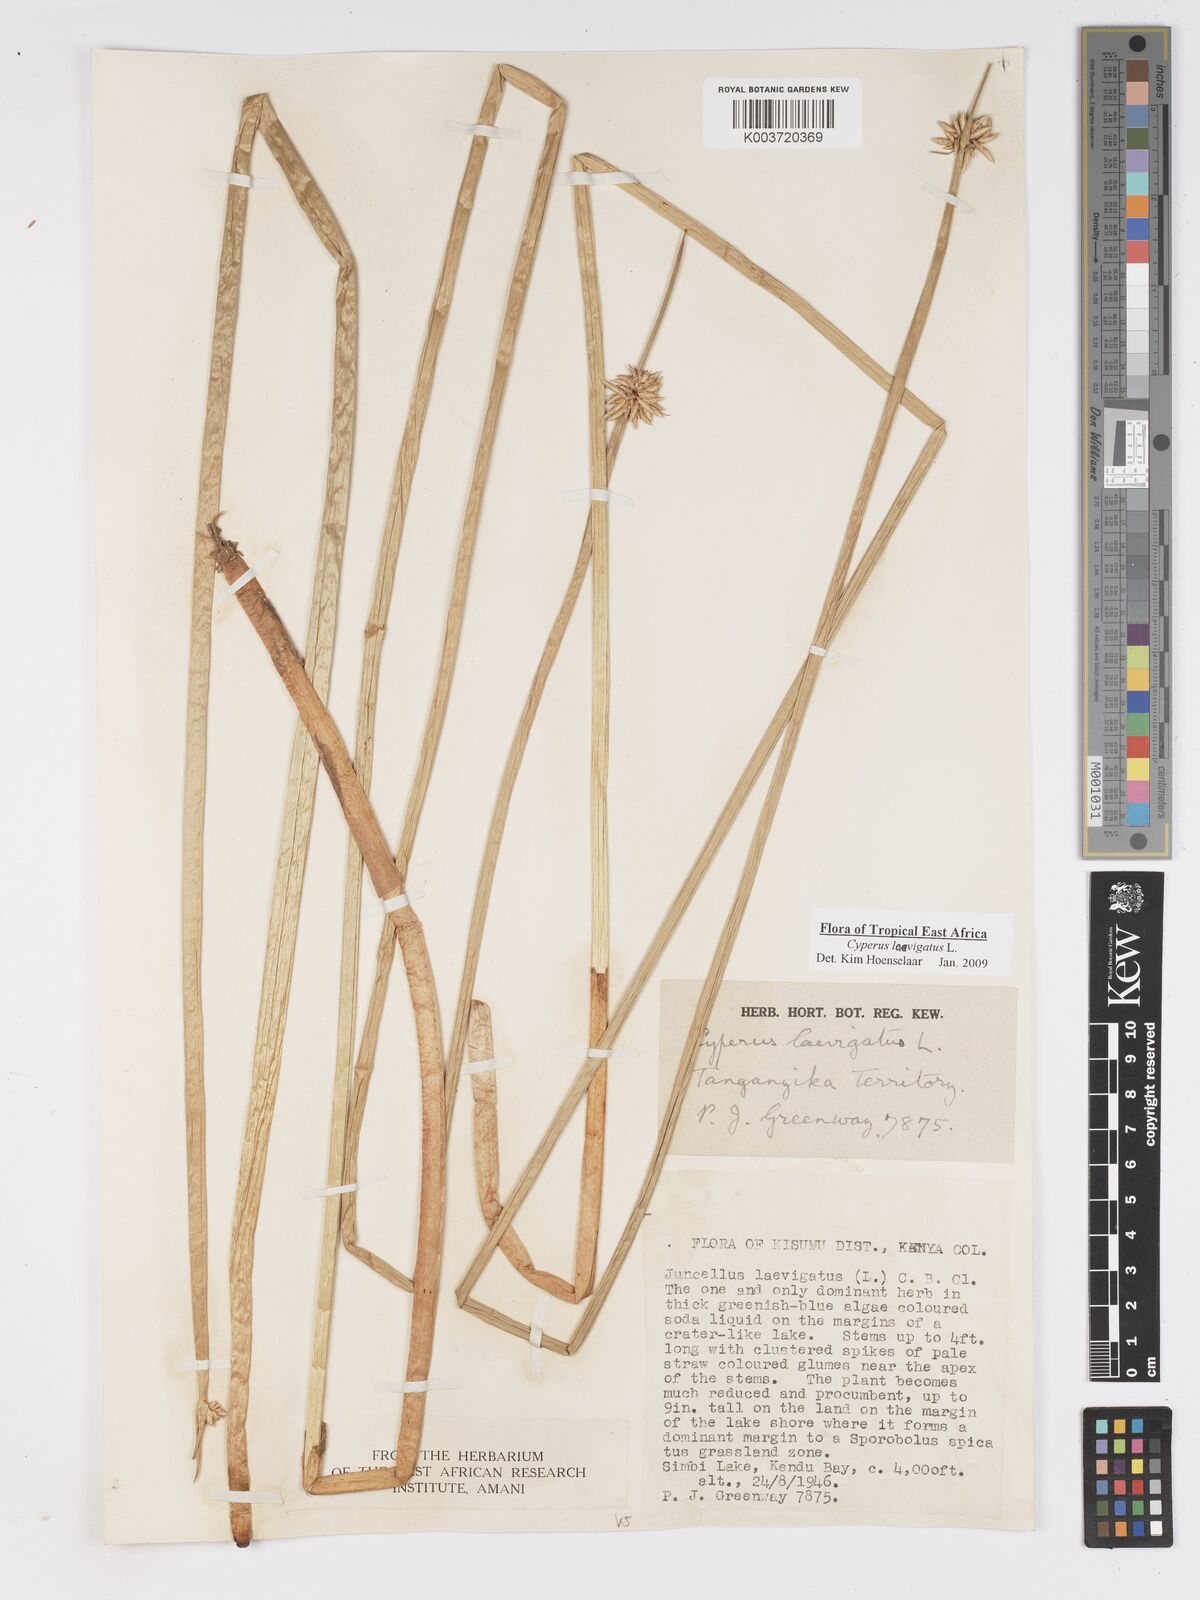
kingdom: Plantae
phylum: Tracheophyta
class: Liliopsida
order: Poales
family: Cyperaceae
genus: Cyperus
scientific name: Cyperus laevigatus
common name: Smooth flat sedge
